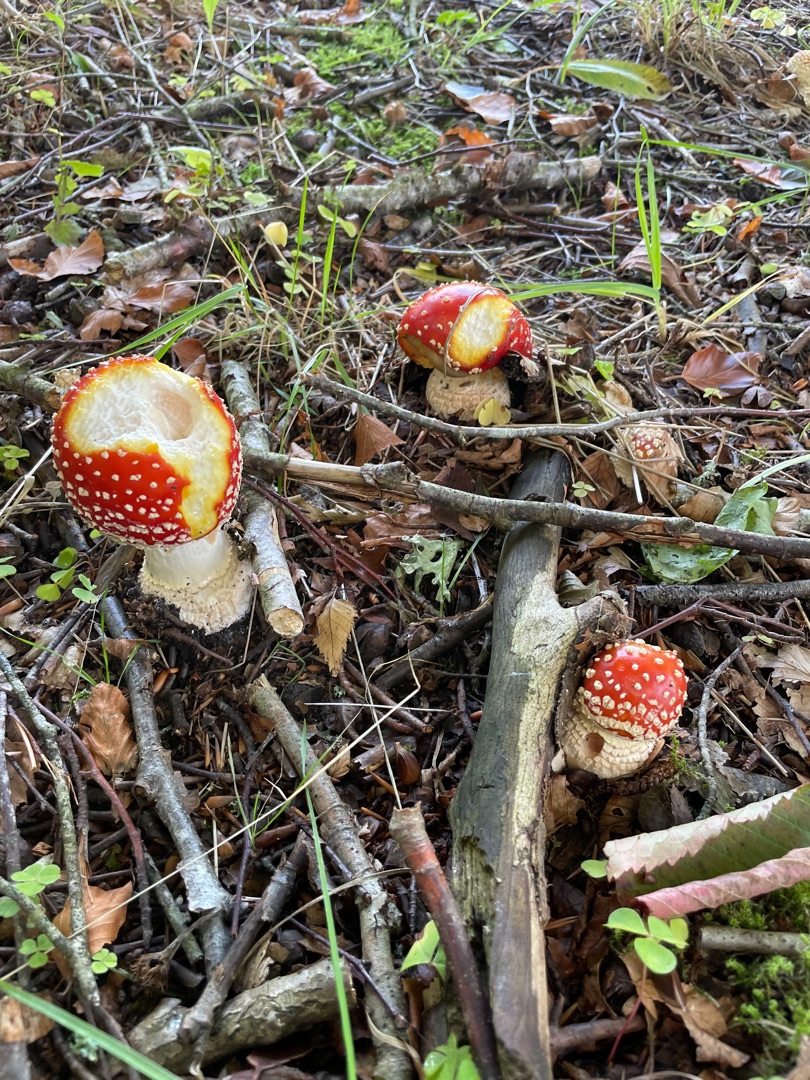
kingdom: Fungi
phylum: Basidiomycota
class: Agaricomycetes
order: Agaricales
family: Amanitaceae
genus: Amanita
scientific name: Amanita muscaria
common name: Rød fluesvamp
